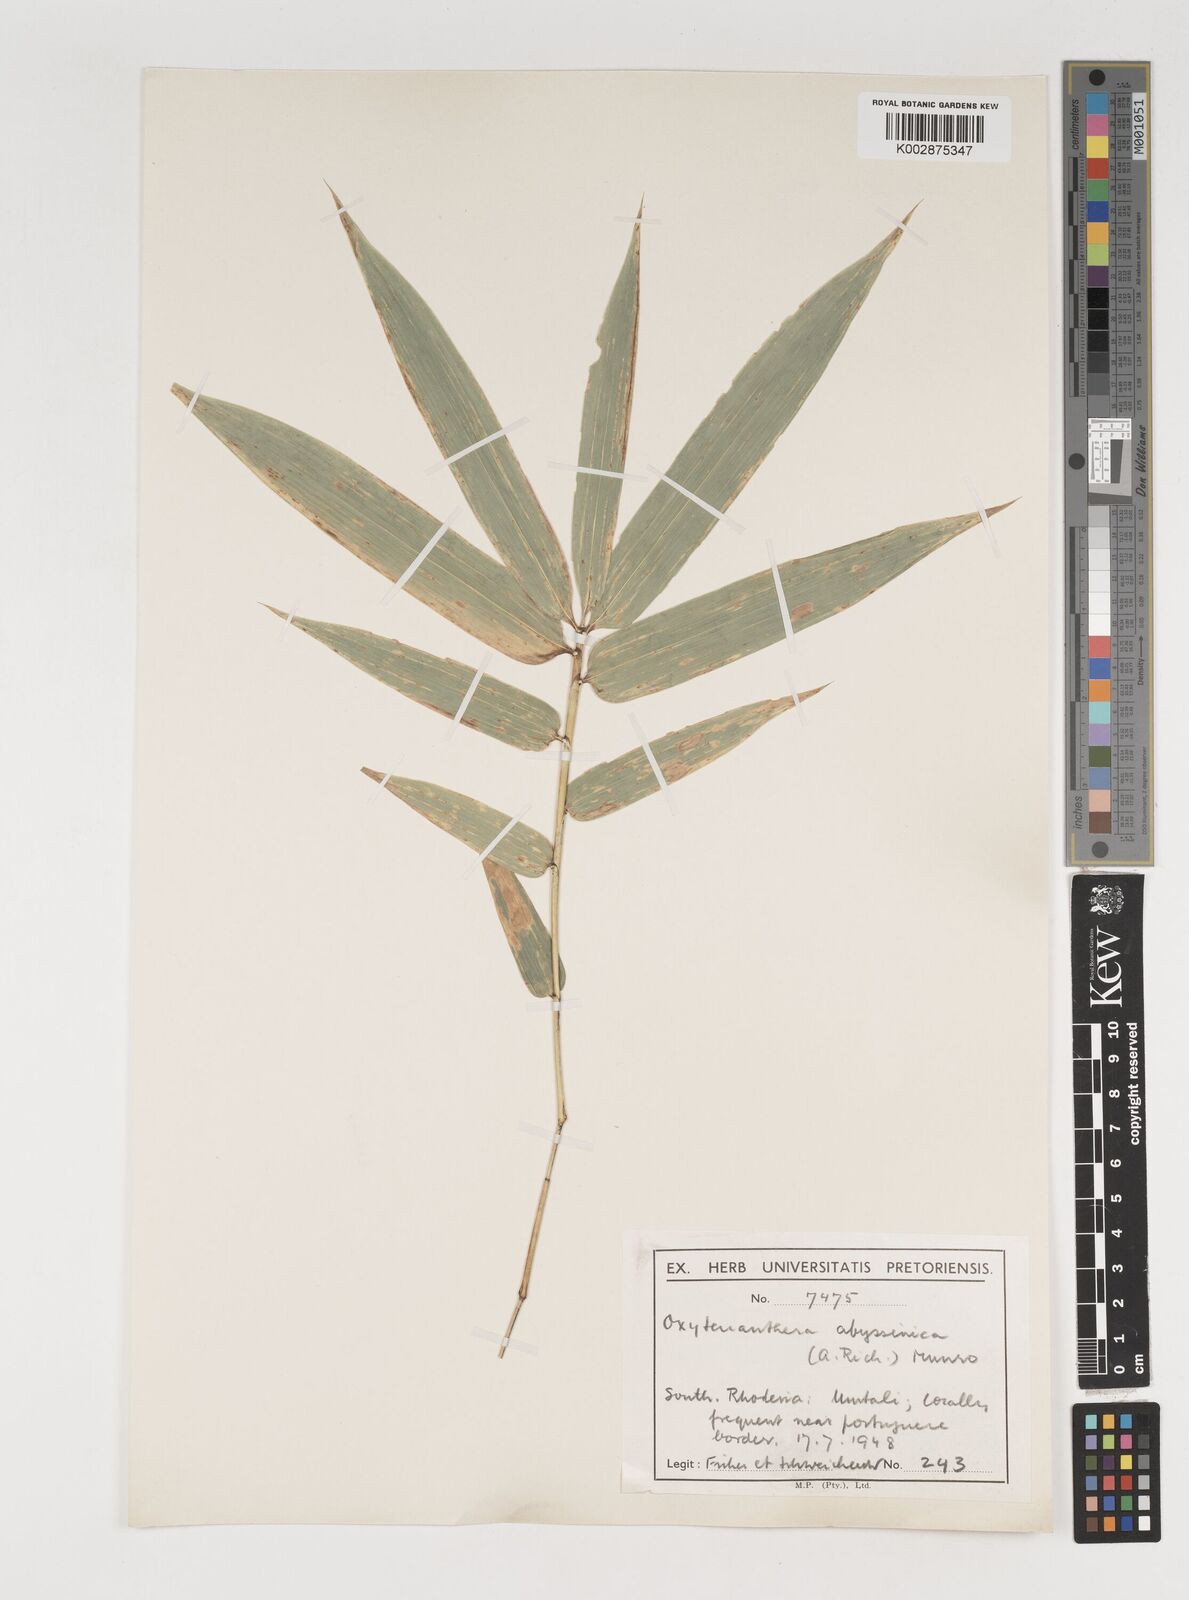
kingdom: Plantae
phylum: Tracheophyta
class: Liliopsida
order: Poales
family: Poaceae
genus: Oxytenanthera
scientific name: Oxytenanthera abyssinica
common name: Wine bamboo
